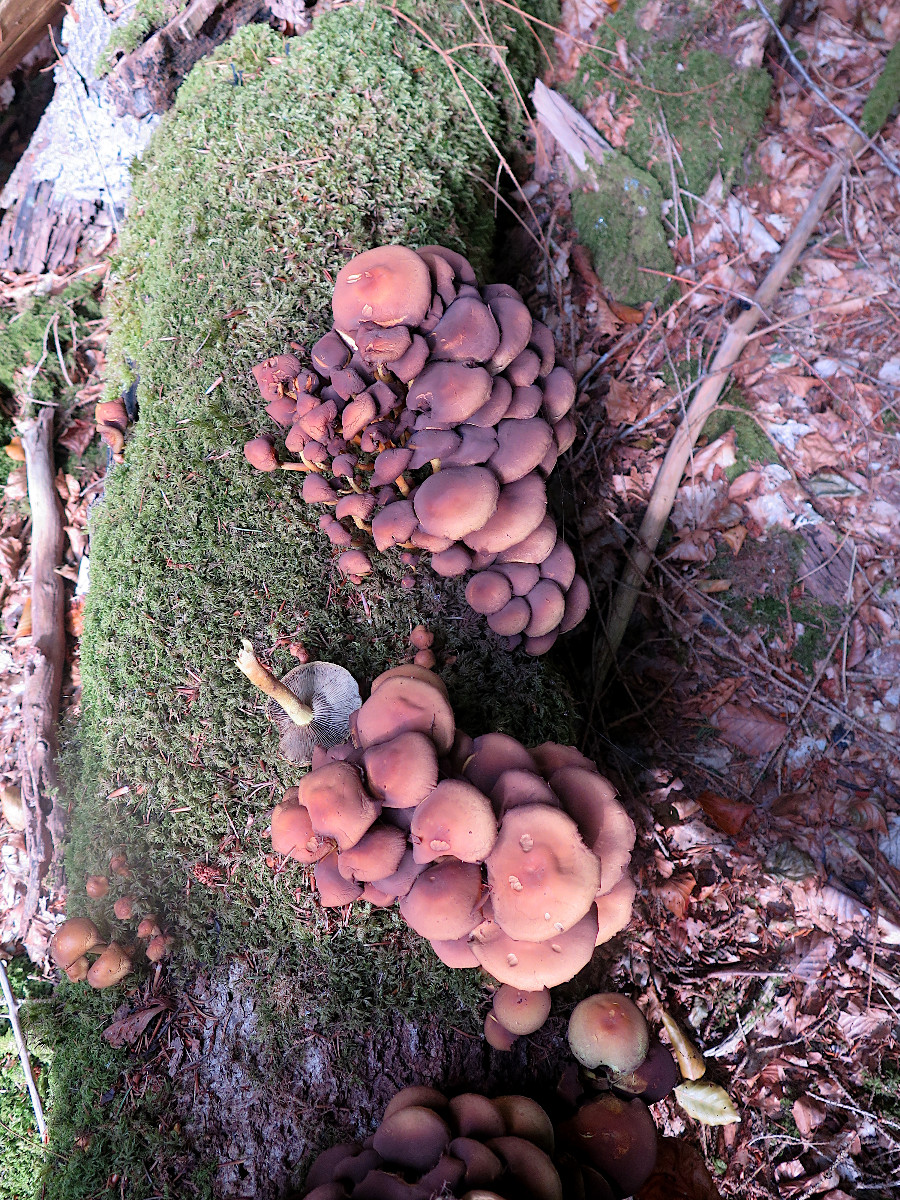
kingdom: Fungi
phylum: Basidiomycota
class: Agaricomycetes
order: Agaricales
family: Strophariaceae
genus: Hypholoma
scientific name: Hypholoma fasciculare
